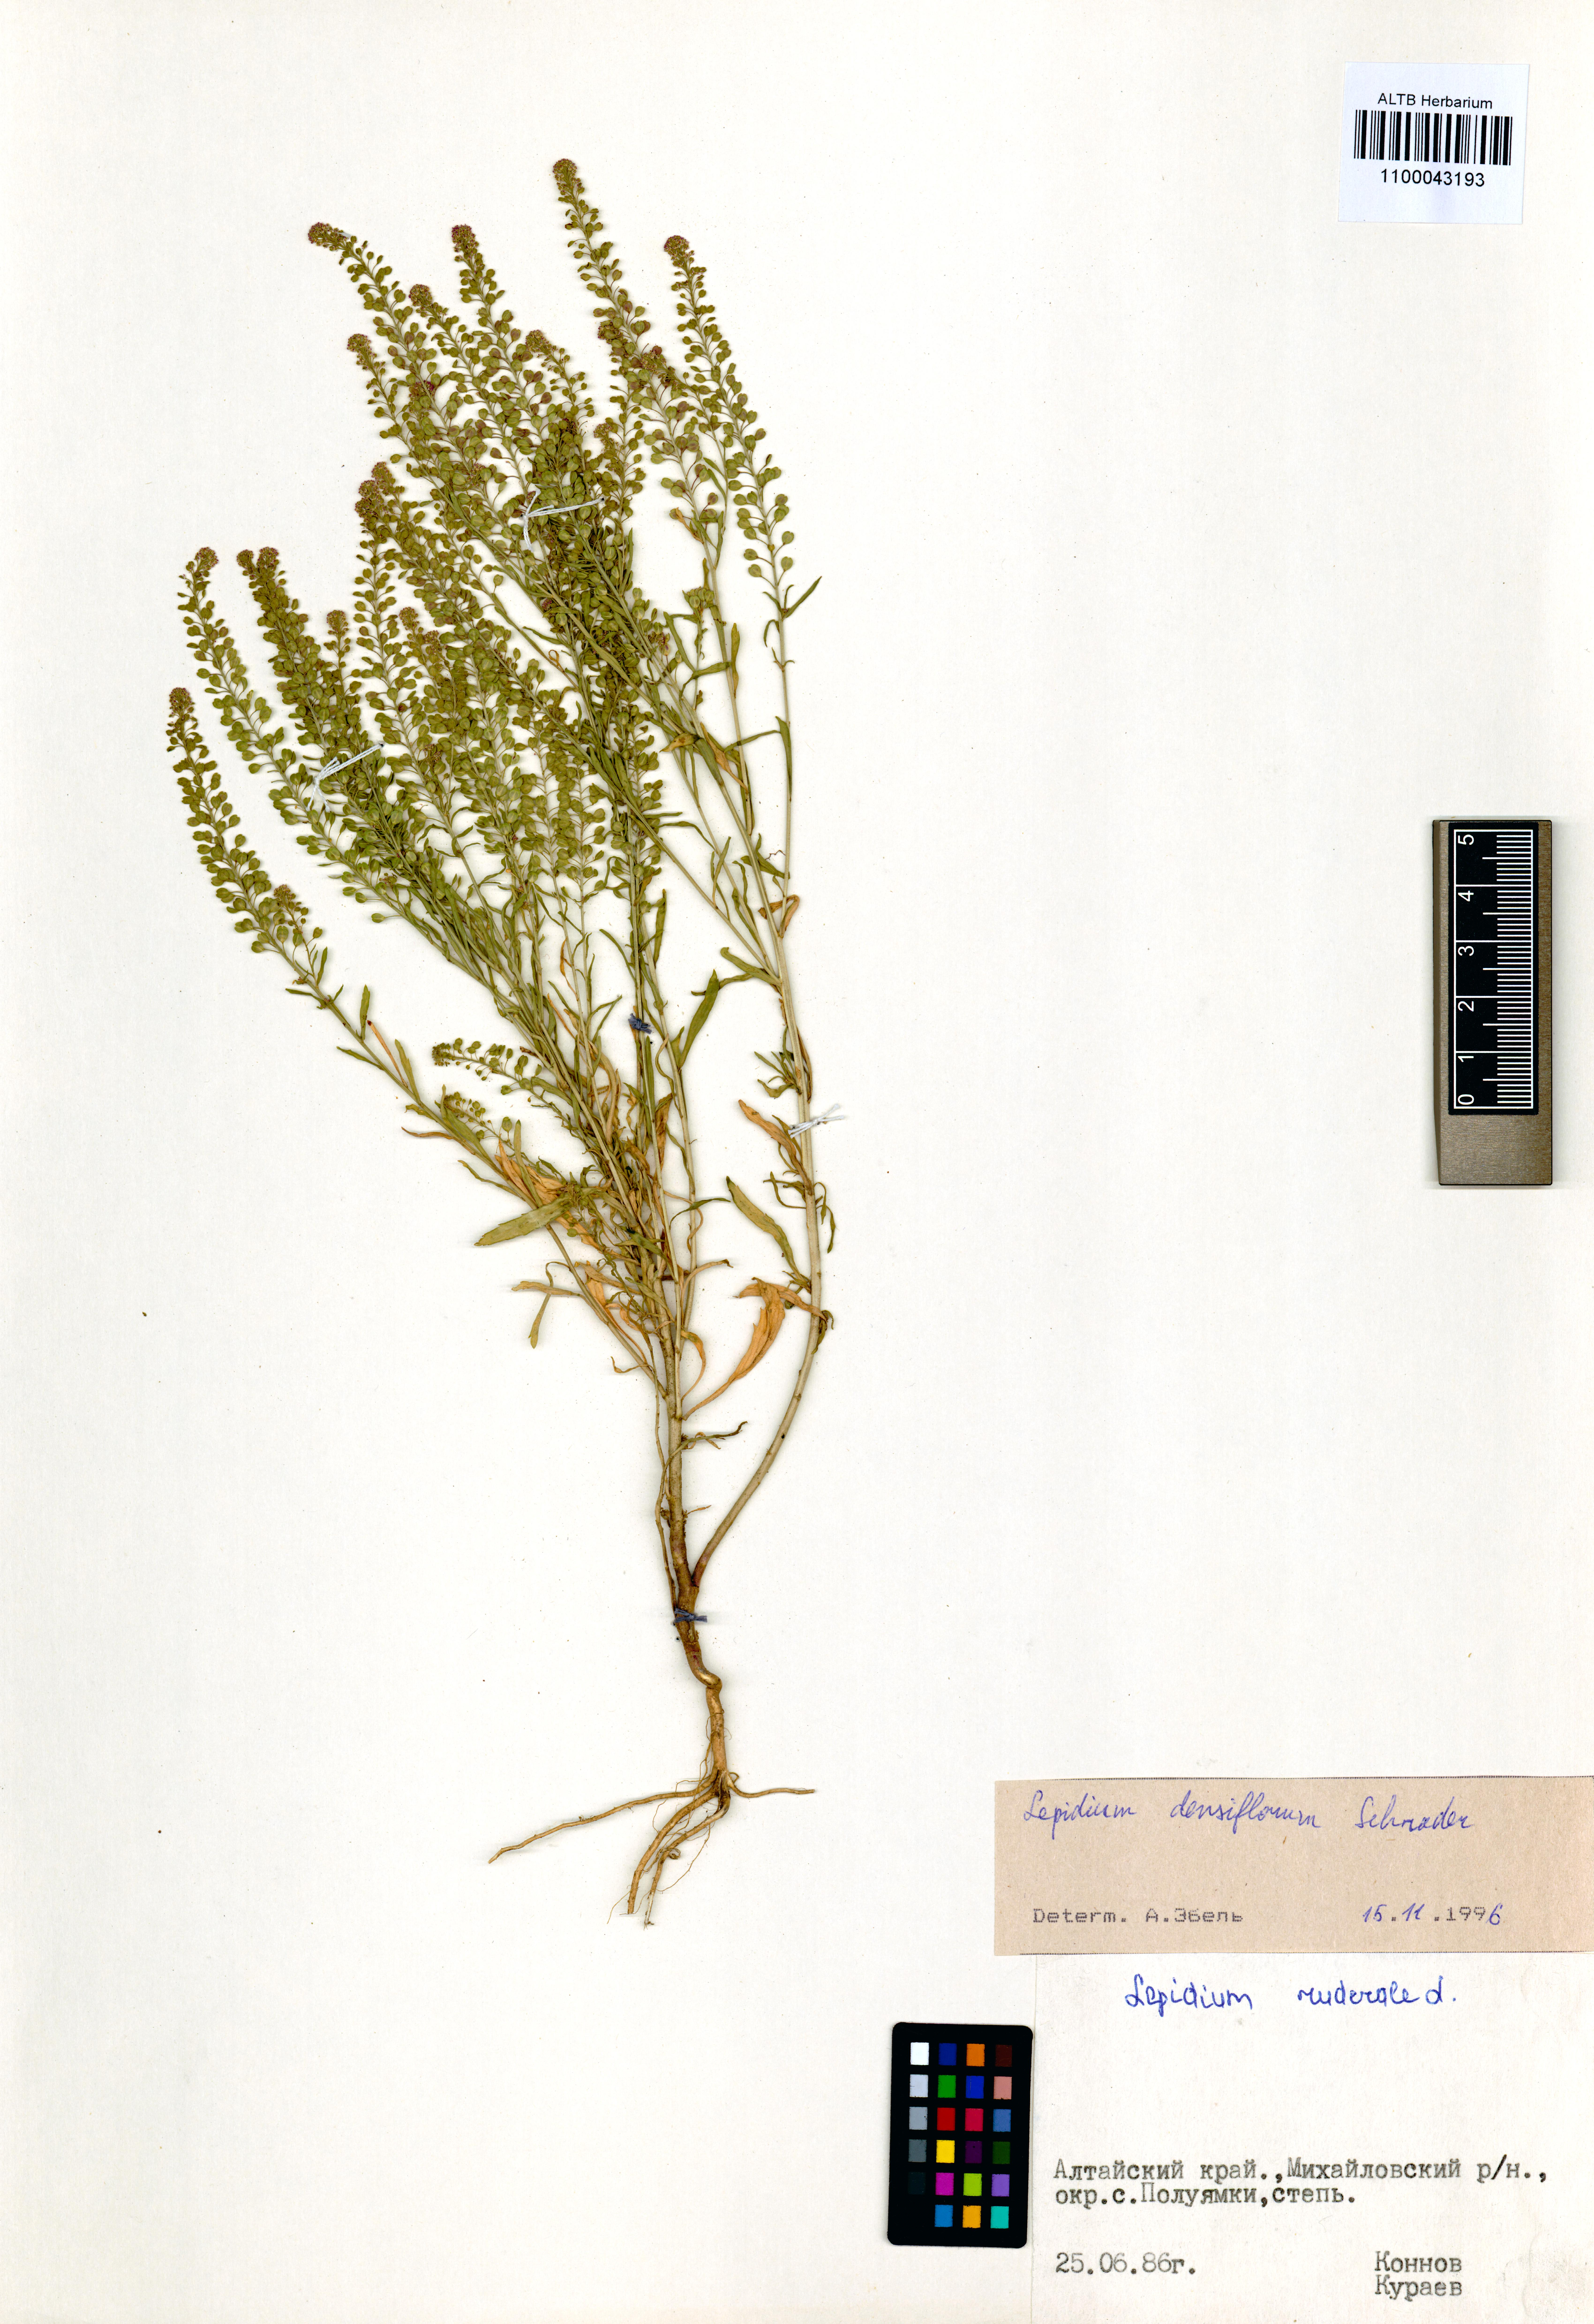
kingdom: Plantae
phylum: Tracheophyta
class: Magnoliopsida
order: Brassicales
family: Brassicaceae
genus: Lepidium
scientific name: Lepidium densiflorum
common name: Miner's pepperwort
